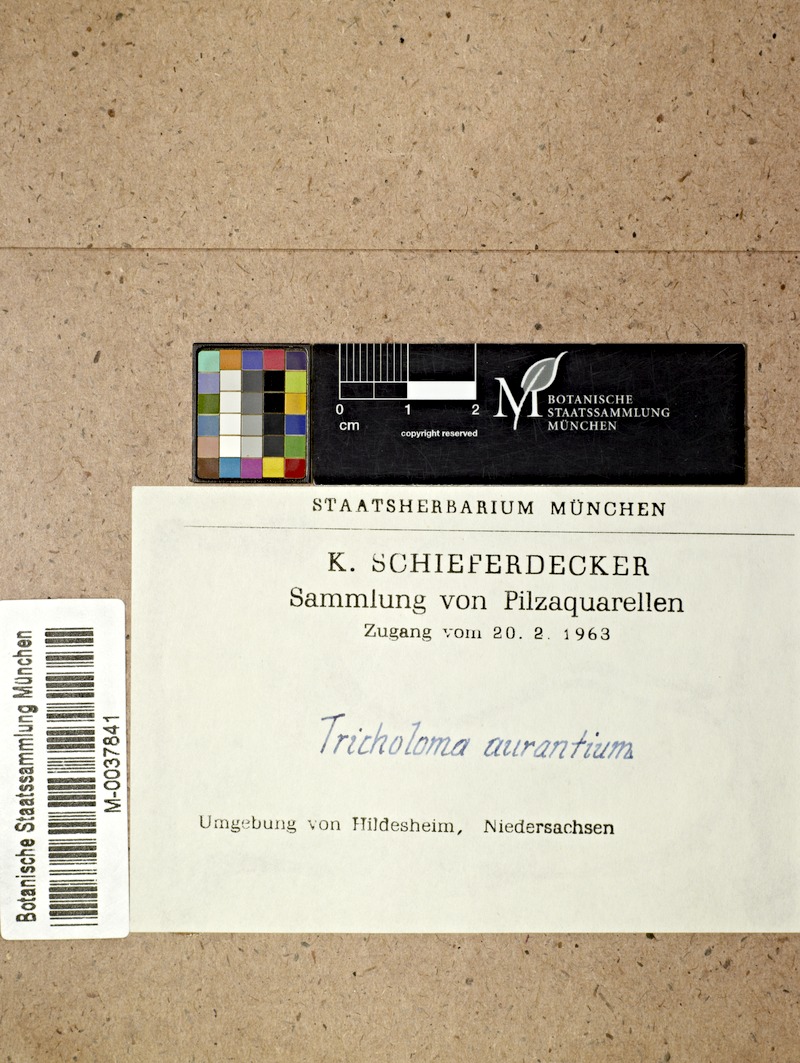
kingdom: Fungi
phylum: Basidiomycota
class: Agaricomycetes
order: Agaricales
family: Tricholomataceae
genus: Tricholoma
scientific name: Tricholoma aurantium
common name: Orange knight
